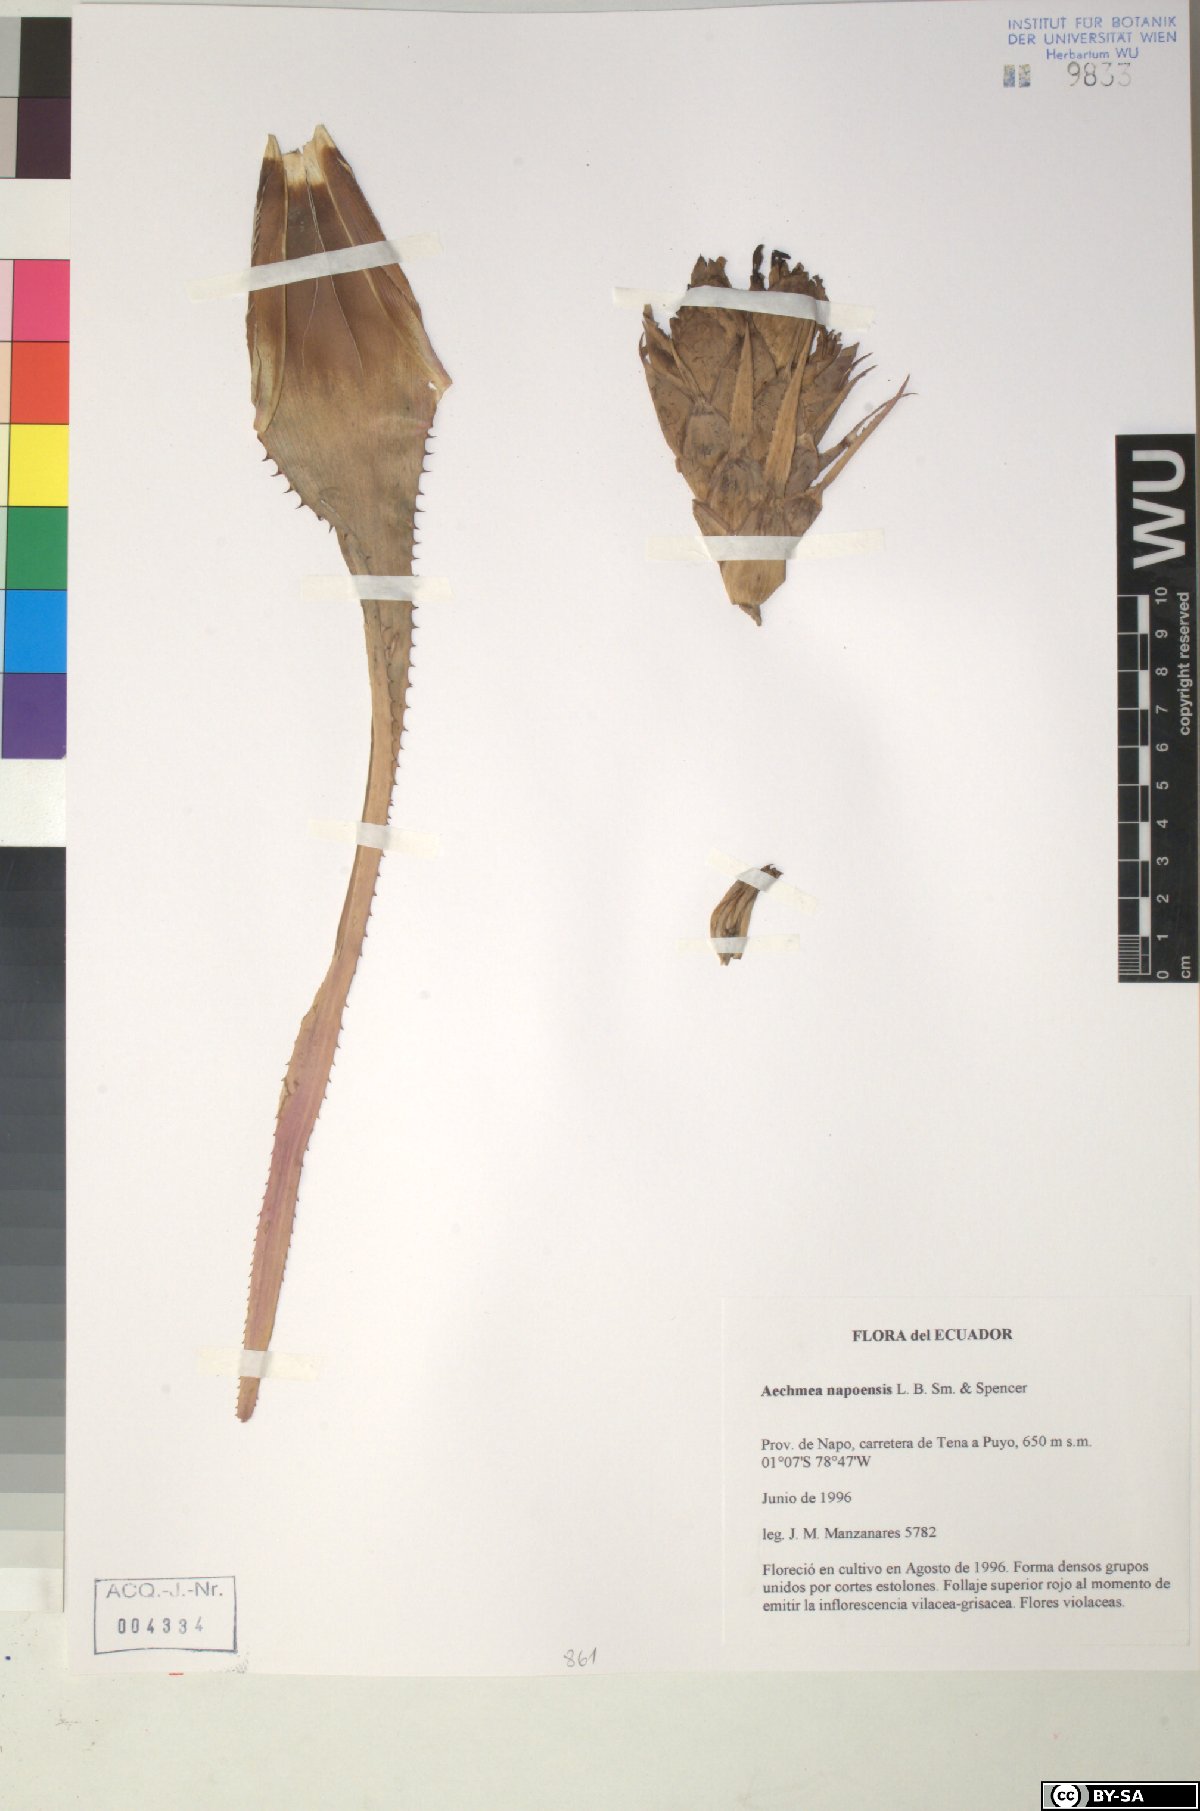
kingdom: Plantae
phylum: Tracheophyta
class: Liliopsida
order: Poales
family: Bromeliaceae
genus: Aechmea
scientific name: Aechmea napoensis
